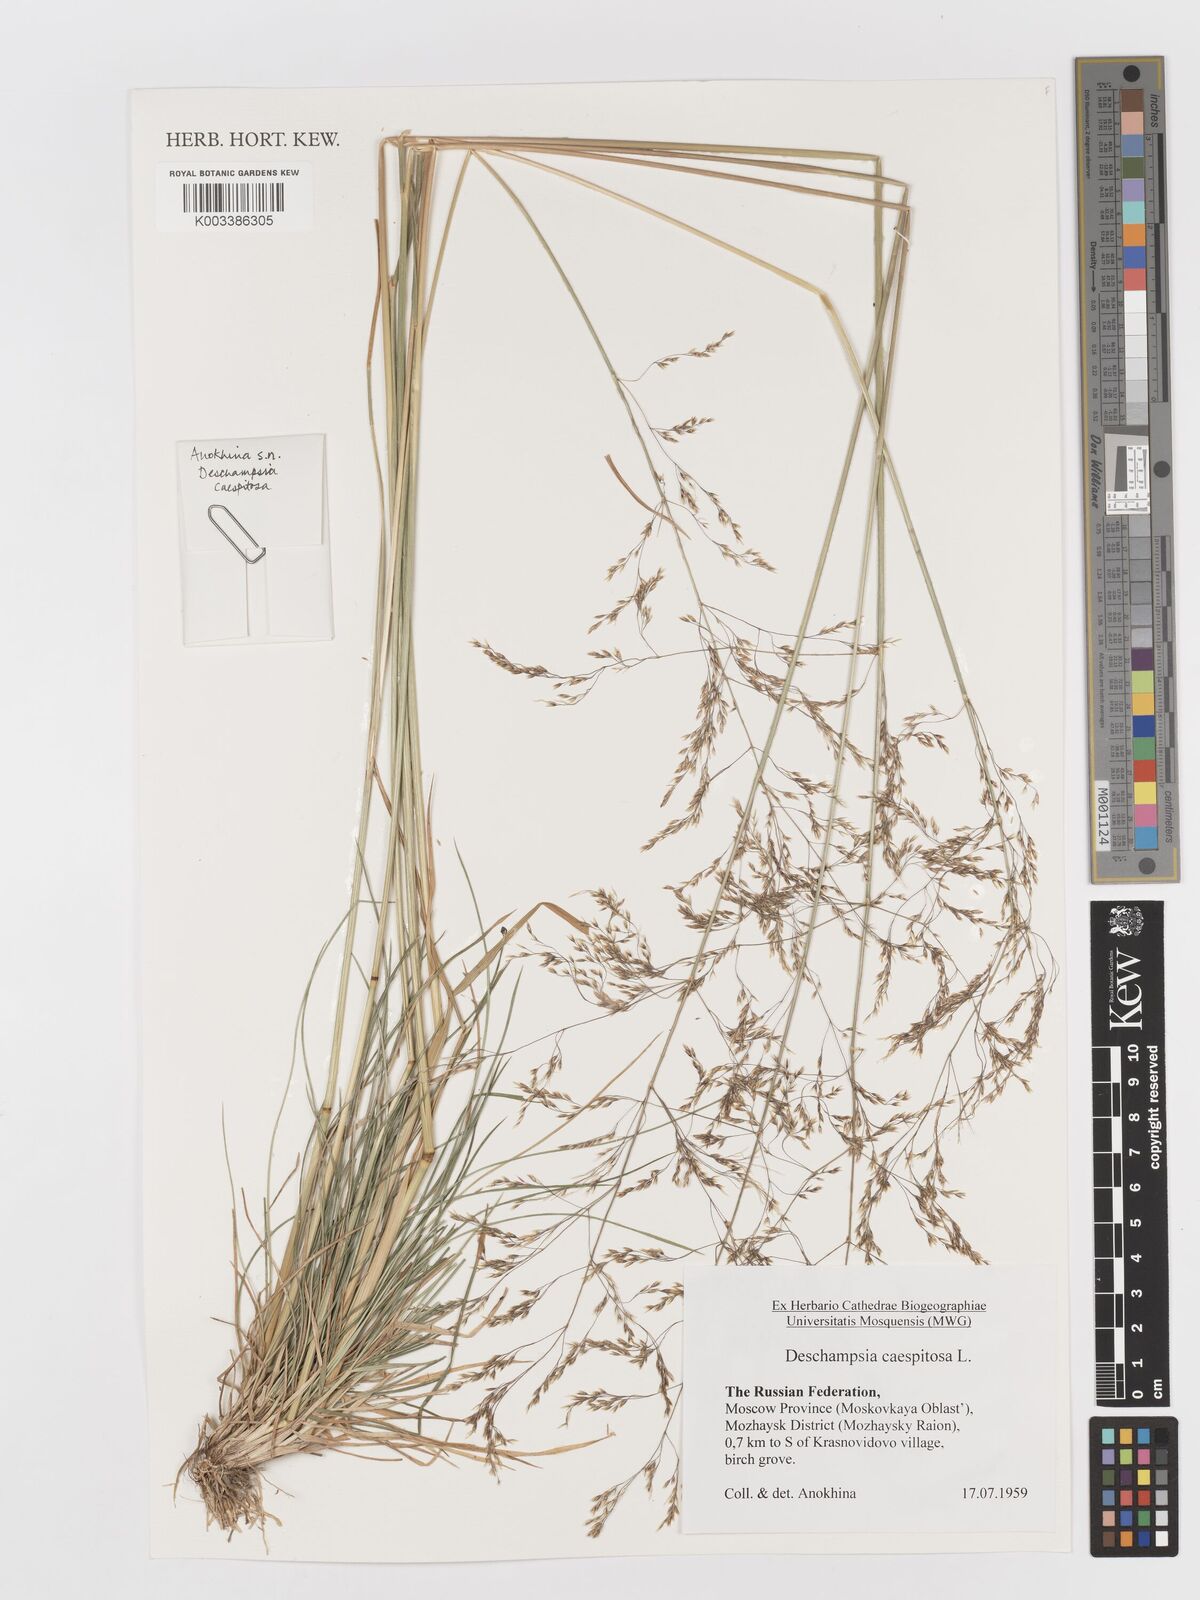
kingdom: Plantae
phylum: Tracheophyta
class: Liliopsida
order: Poales
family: Poaceae
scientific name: Poaceae
